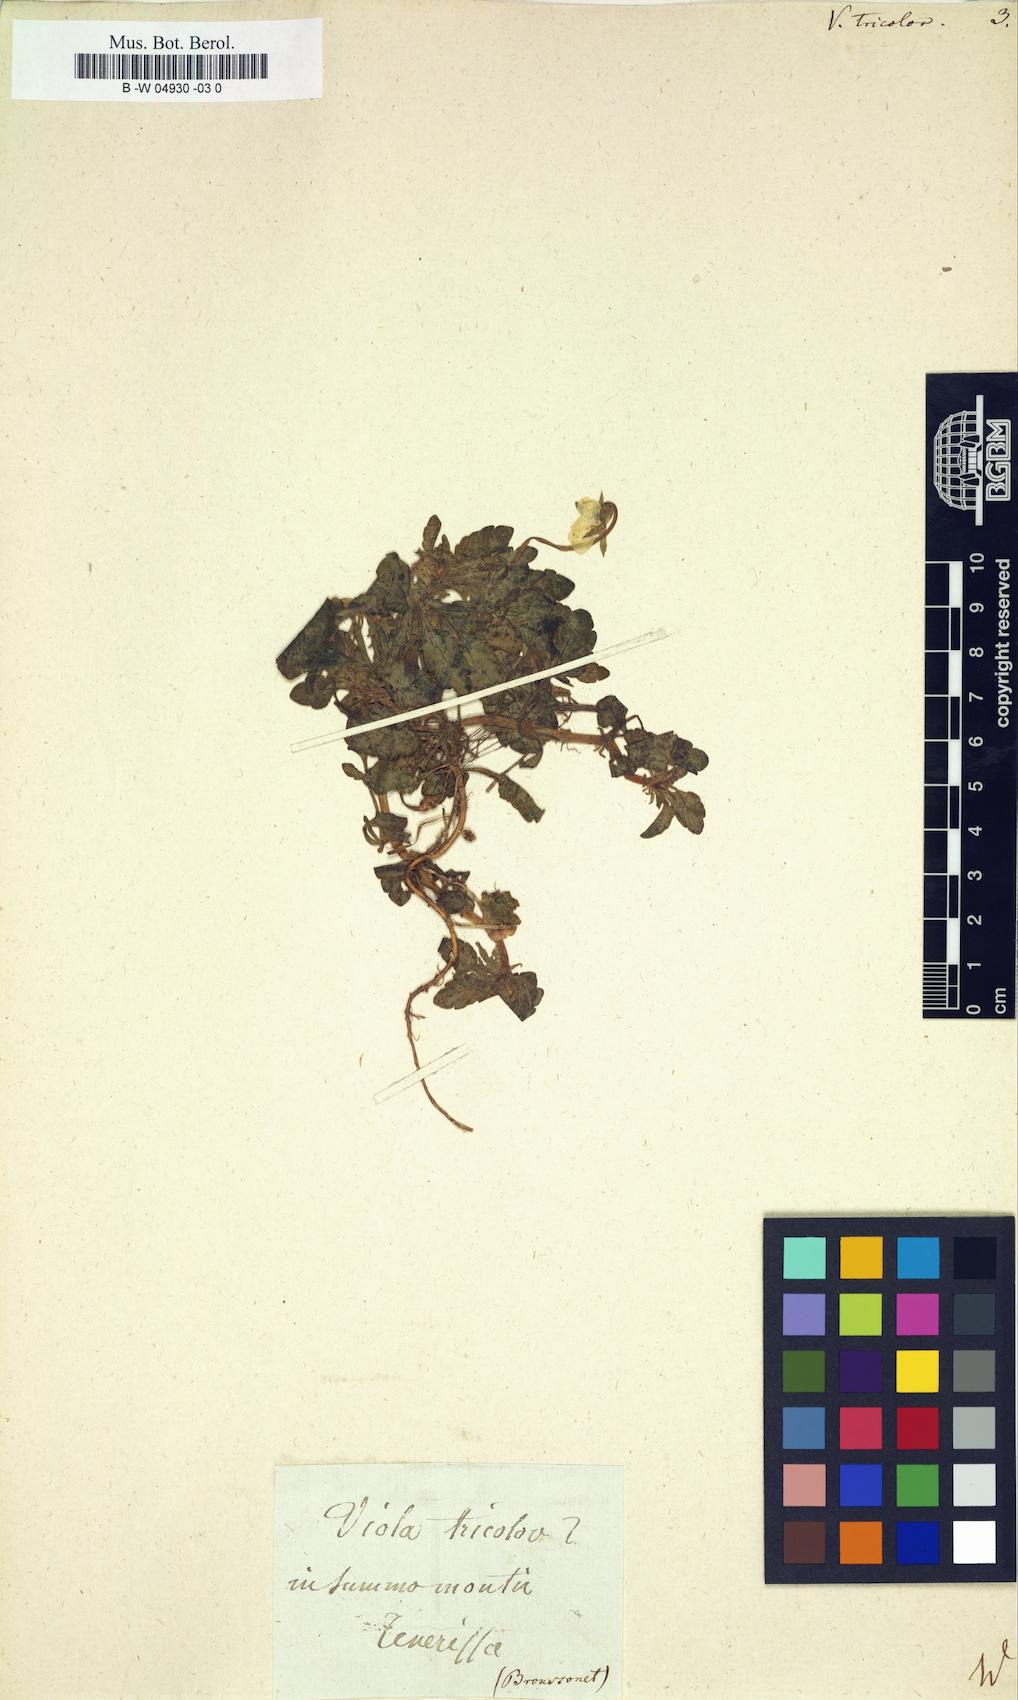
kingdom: Plantae
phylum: Tracheophyta
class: Magnoliopsida
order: Malpighiales
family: Violaceae
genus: Viola
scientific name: Viola tricolor
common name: Pansy
